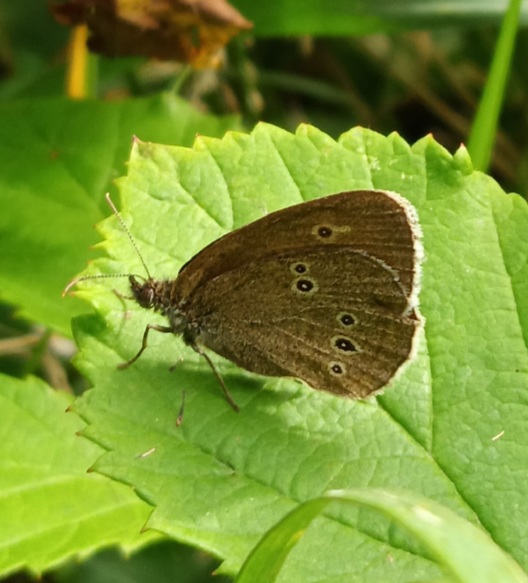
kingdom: Animalia
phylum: Arthropoda
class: Insecta
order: Lepidoptera
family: Nymphalidae
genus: Aphantopus
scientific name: Aphantopus hyperantus
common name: Engrandøje
